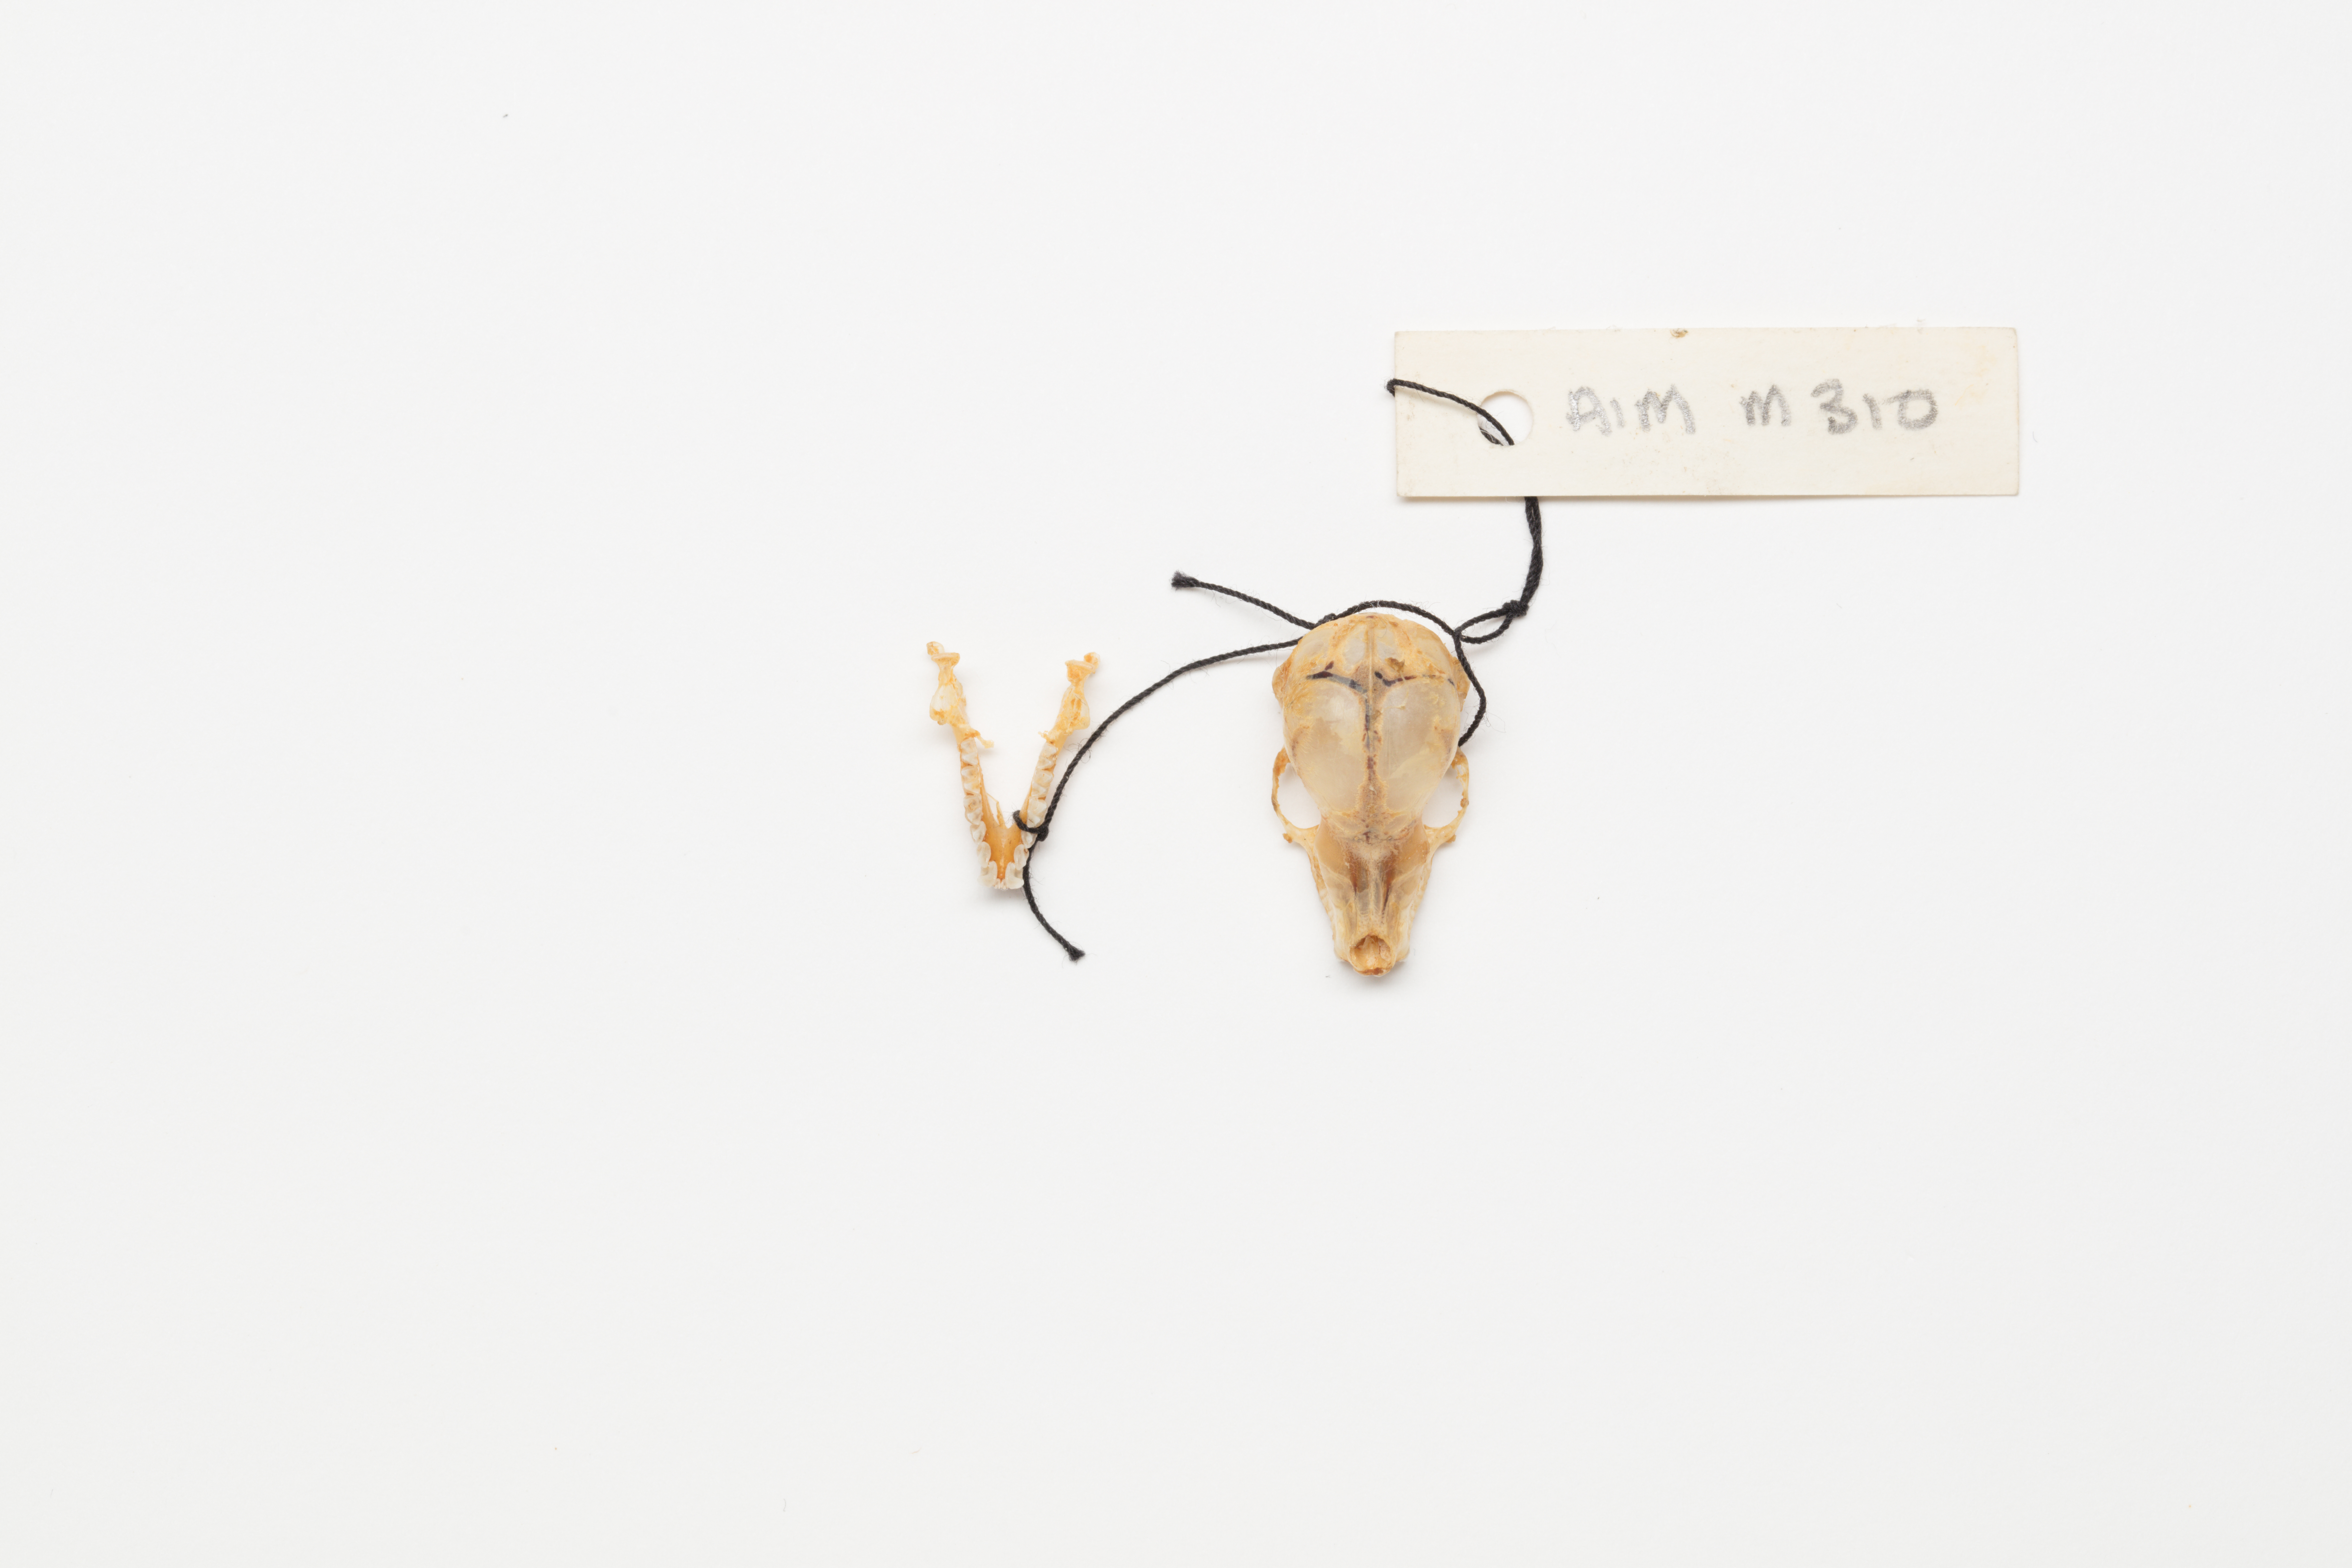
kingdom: Animalia
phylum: Chordata
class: Mammalia
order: Chiroptera
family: Mystacinidae
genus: Mystacina
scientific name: Mystacina tuberculata
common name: New zealand lesser short-tailed bat
